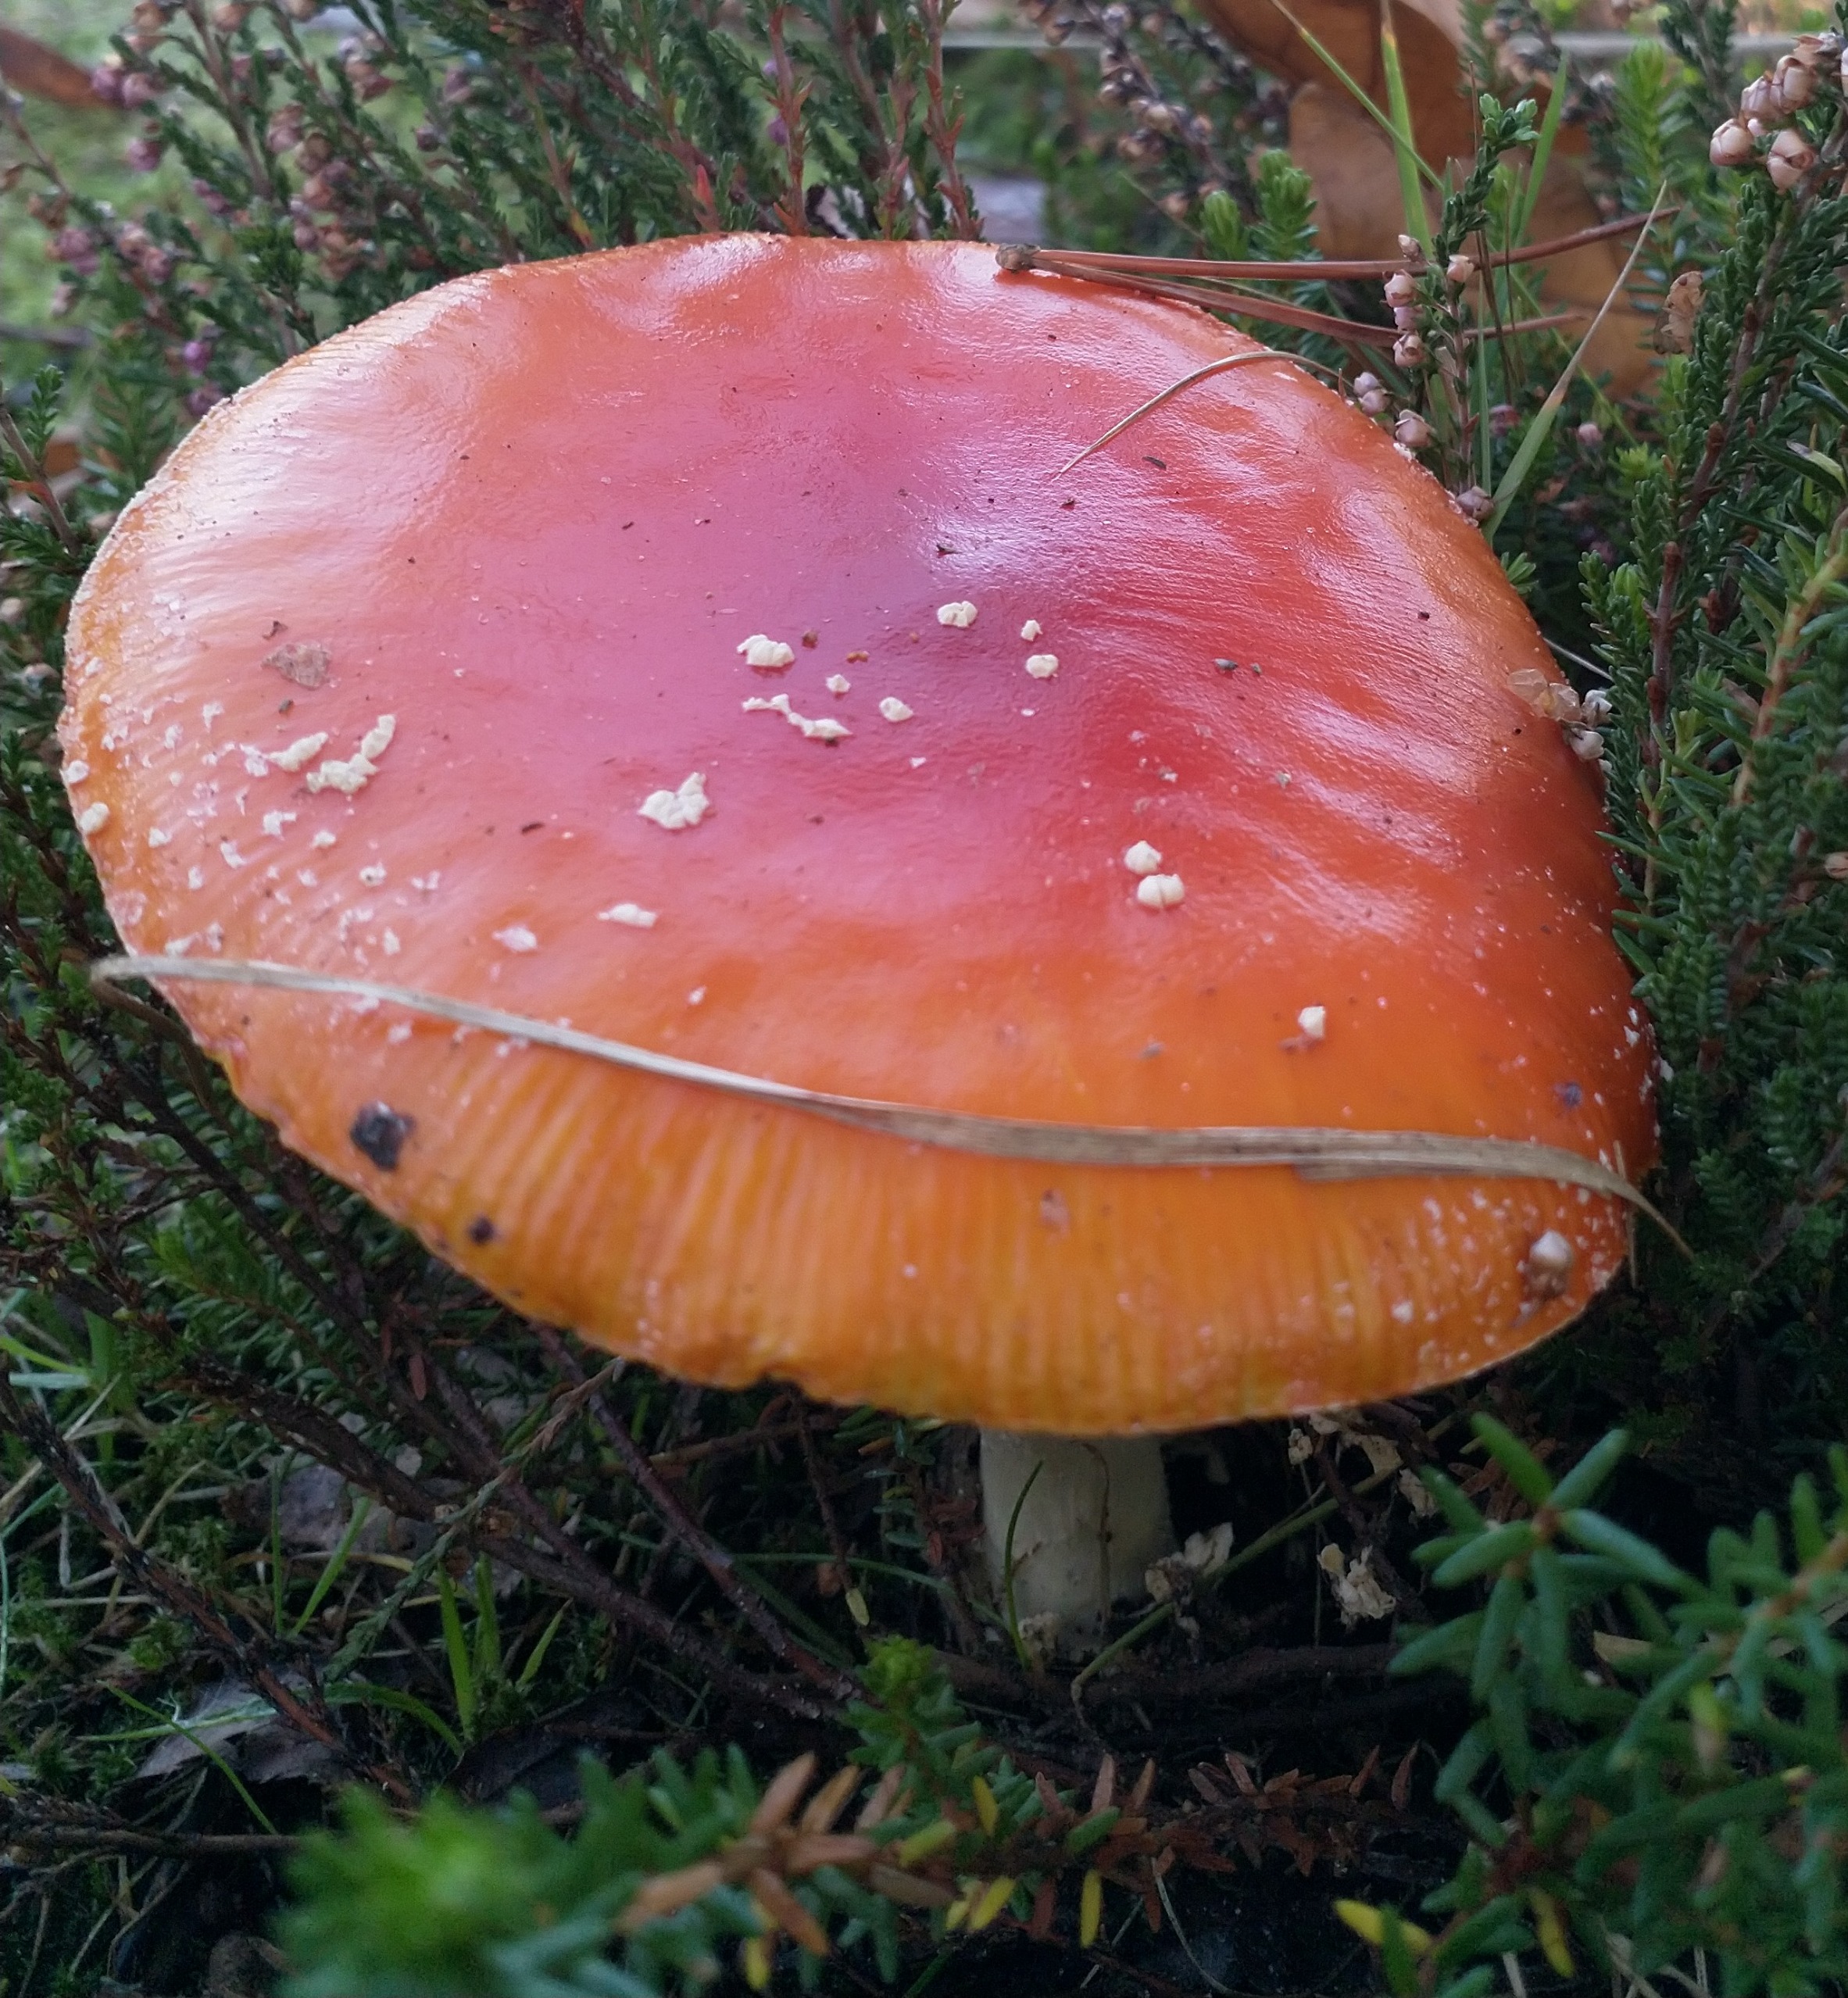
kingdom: Fungi
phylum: Basidiomycota
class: Agaricomycetes
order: Agaricales
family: Amanitaceae
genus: Amanita
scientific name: Amanita muscaria
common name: Rød fluesvamp
